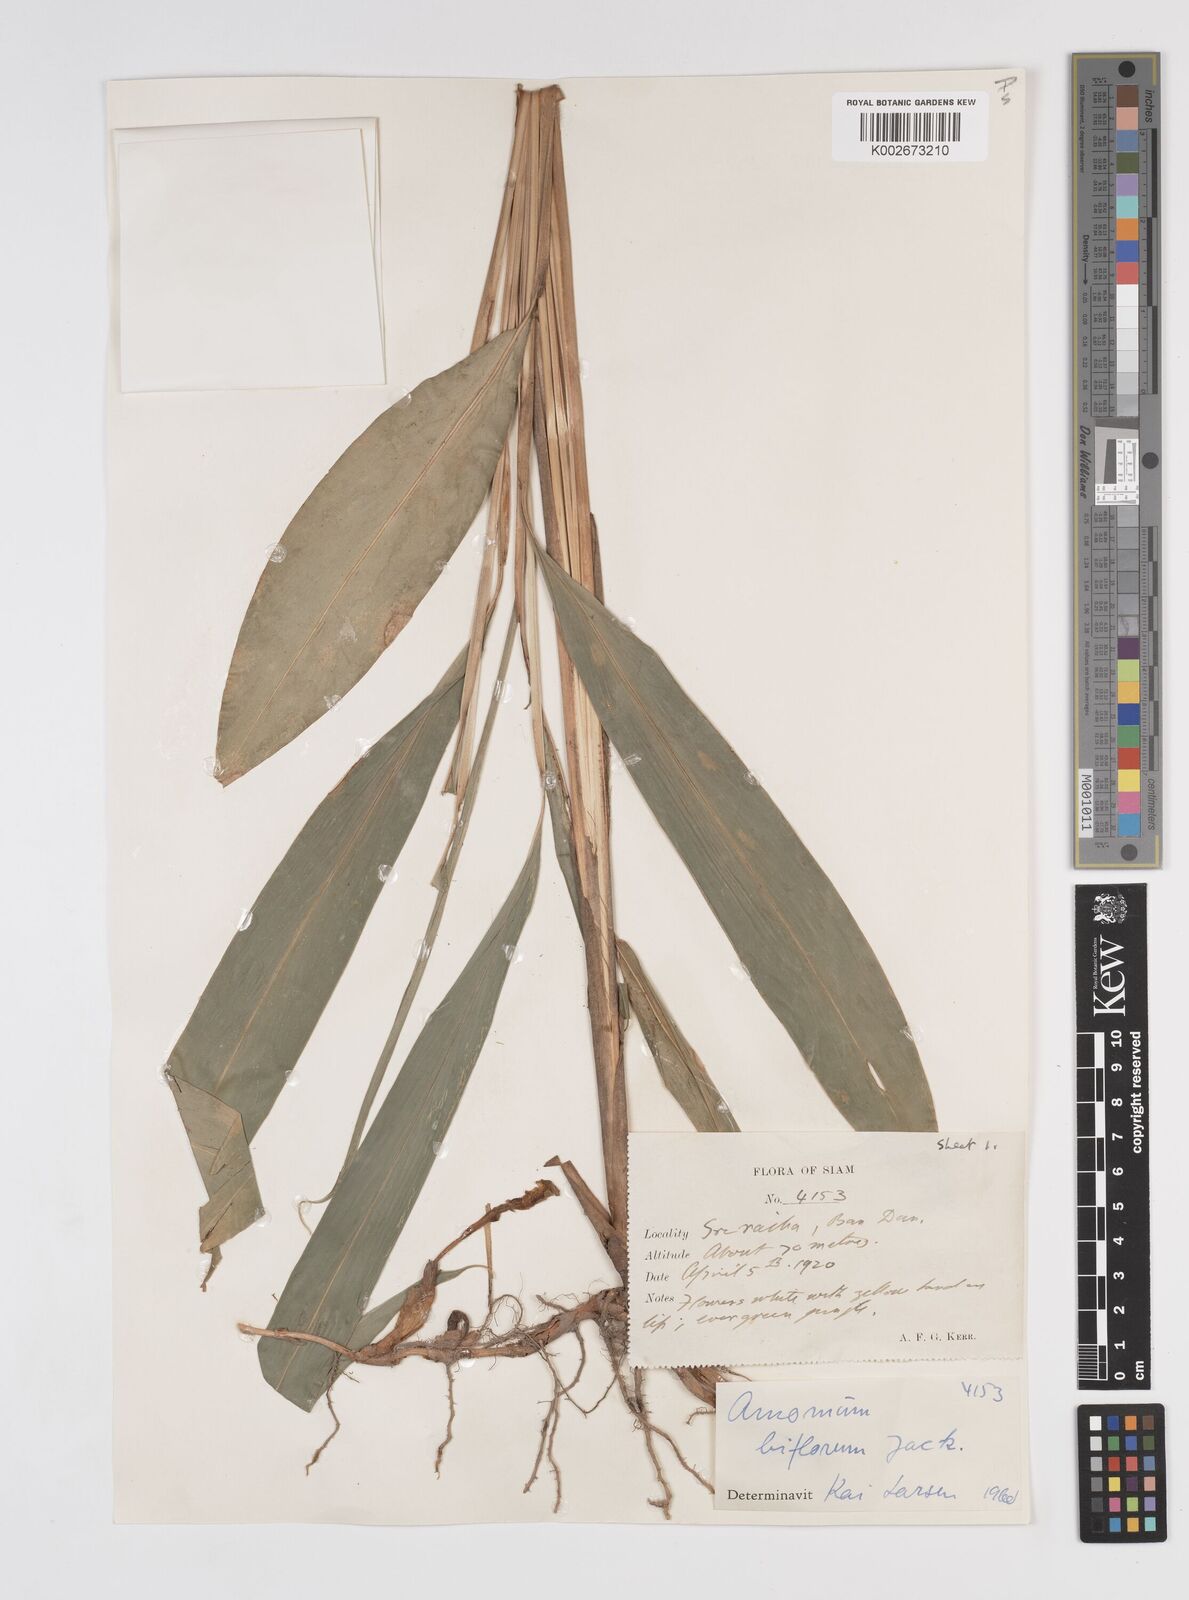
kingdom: Plantae
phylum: Tracheophyta
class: Liliopsida
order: Zingiberales
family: Zingiberaceae
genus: Wurfbainia
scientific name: Wurfbainia biflora
